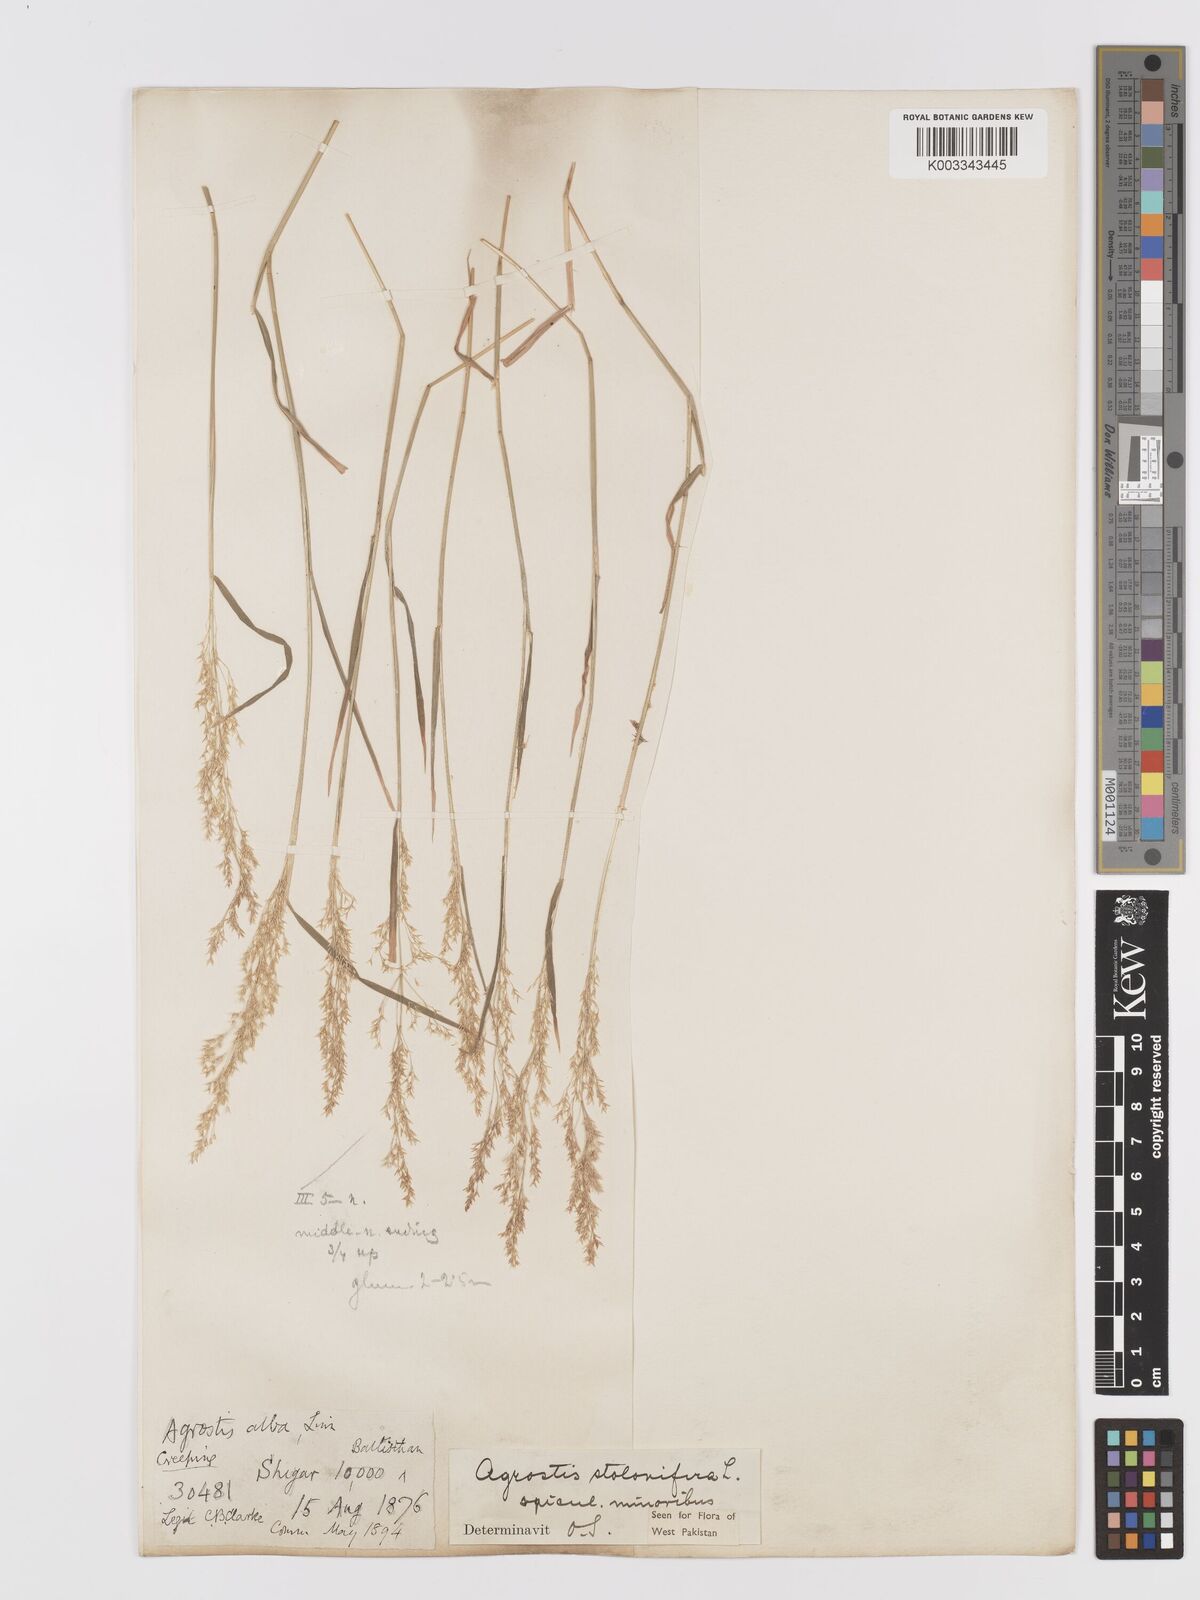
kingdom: Plantae
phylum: Tracheophyta
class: Liliopsida
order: Poales
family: Poaceae
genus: Agrostis
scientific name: Agrostis stolonifera
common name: Creeping bentgrass
